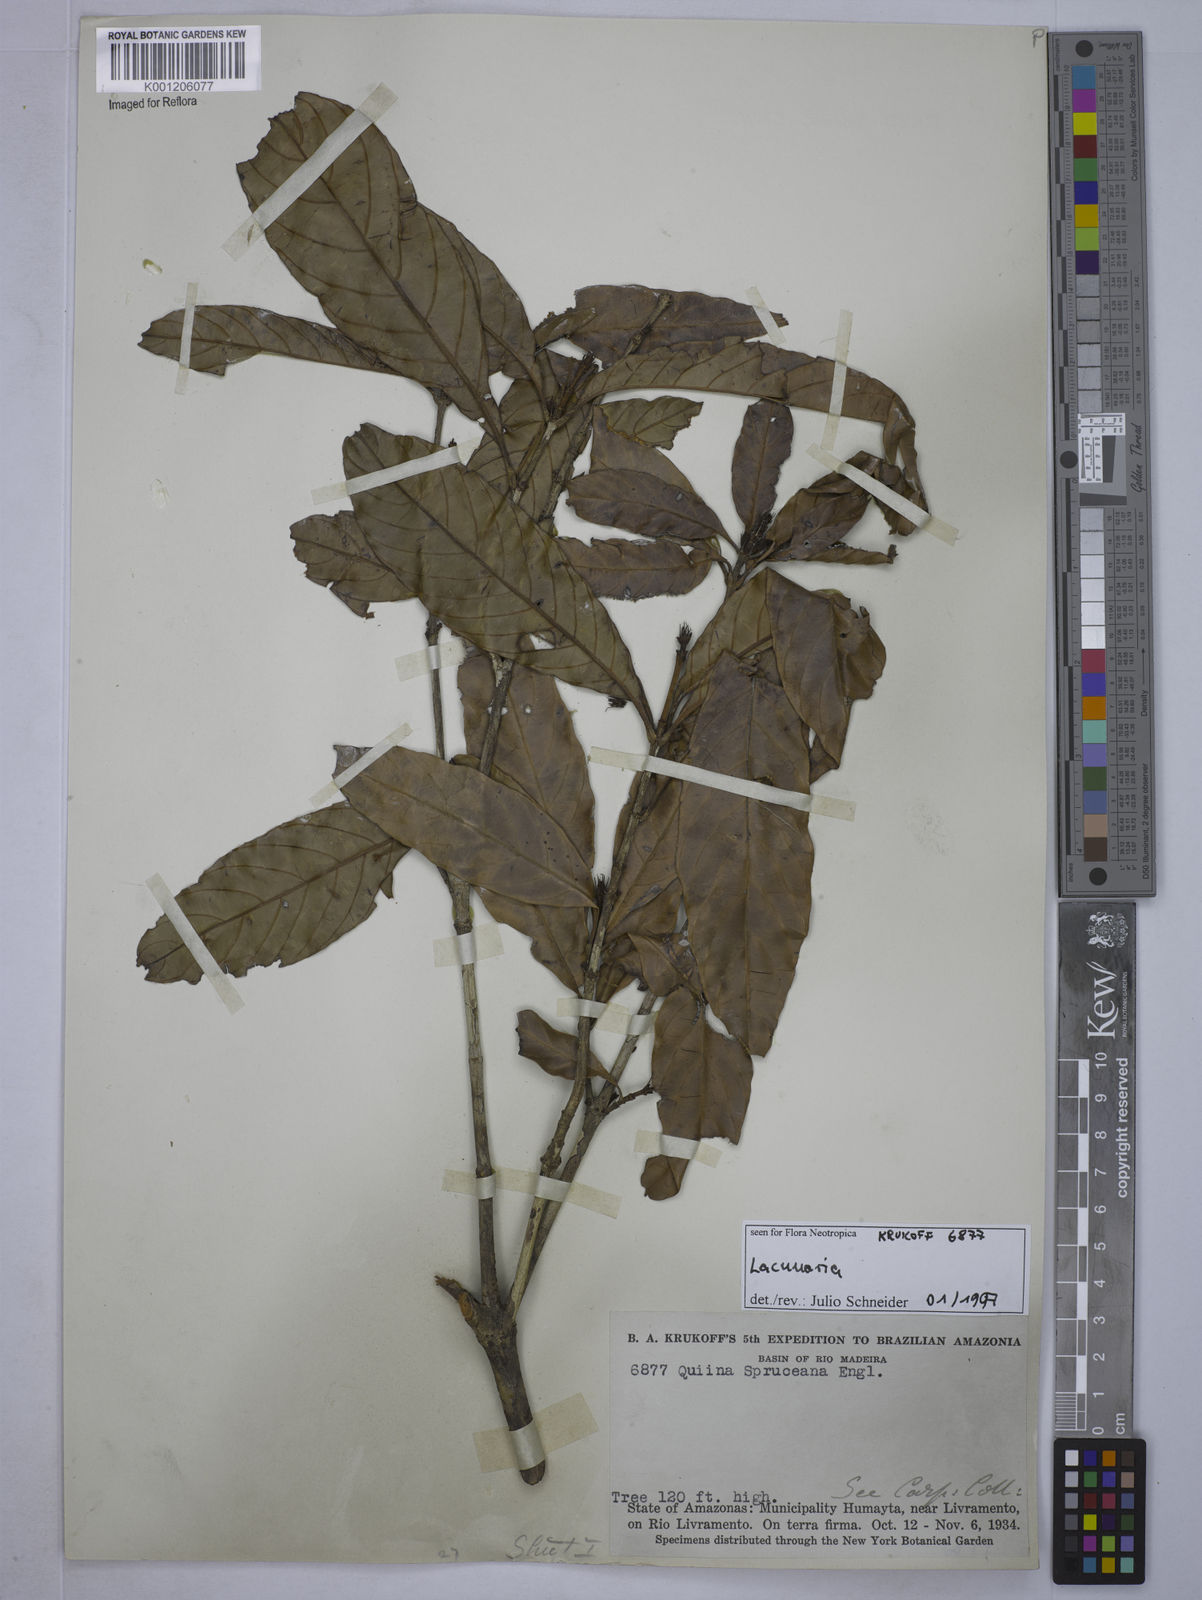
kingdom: Plantae
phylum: Tracheophyta
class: Magnoliopsida
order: Malpighiales
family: Quiinaceae
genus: Lacunaria
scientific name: Lacunaria oppositifolia
